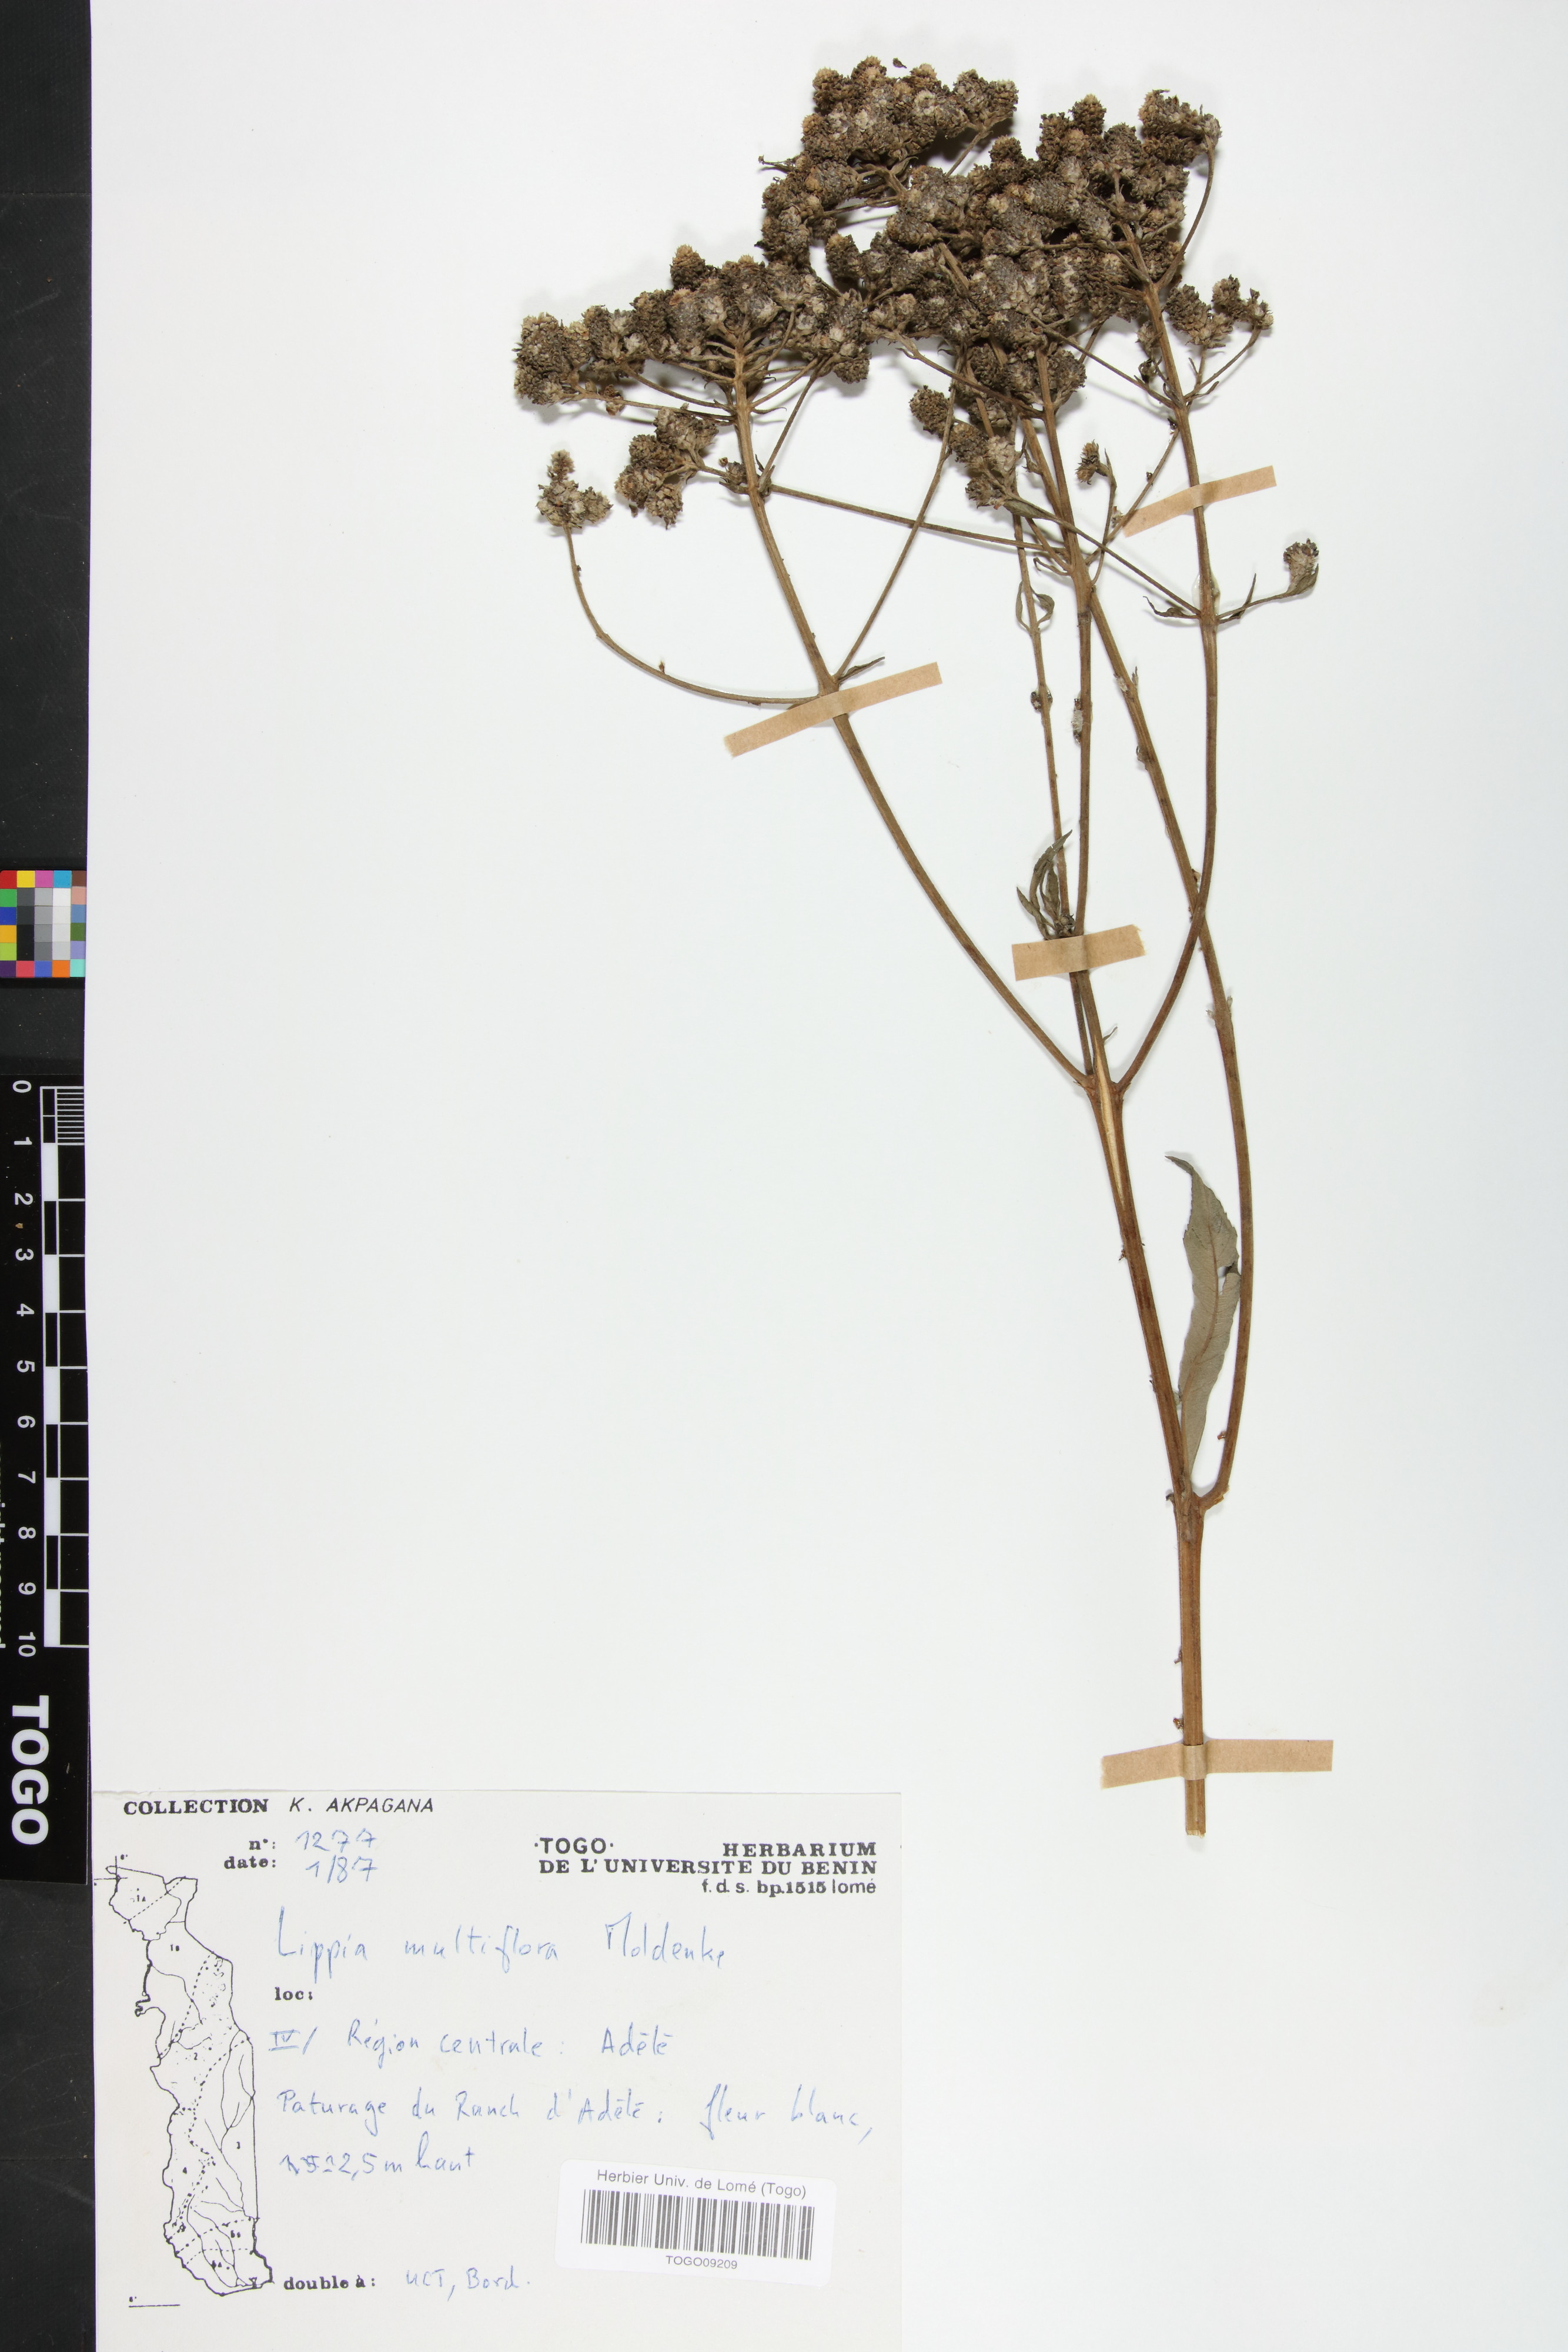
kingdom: Plantae
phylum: Tracheophyta
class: Magnoliopsida
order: Lamiales
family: Verbenaceae
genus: Lippia
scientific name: Lippia multiflora
